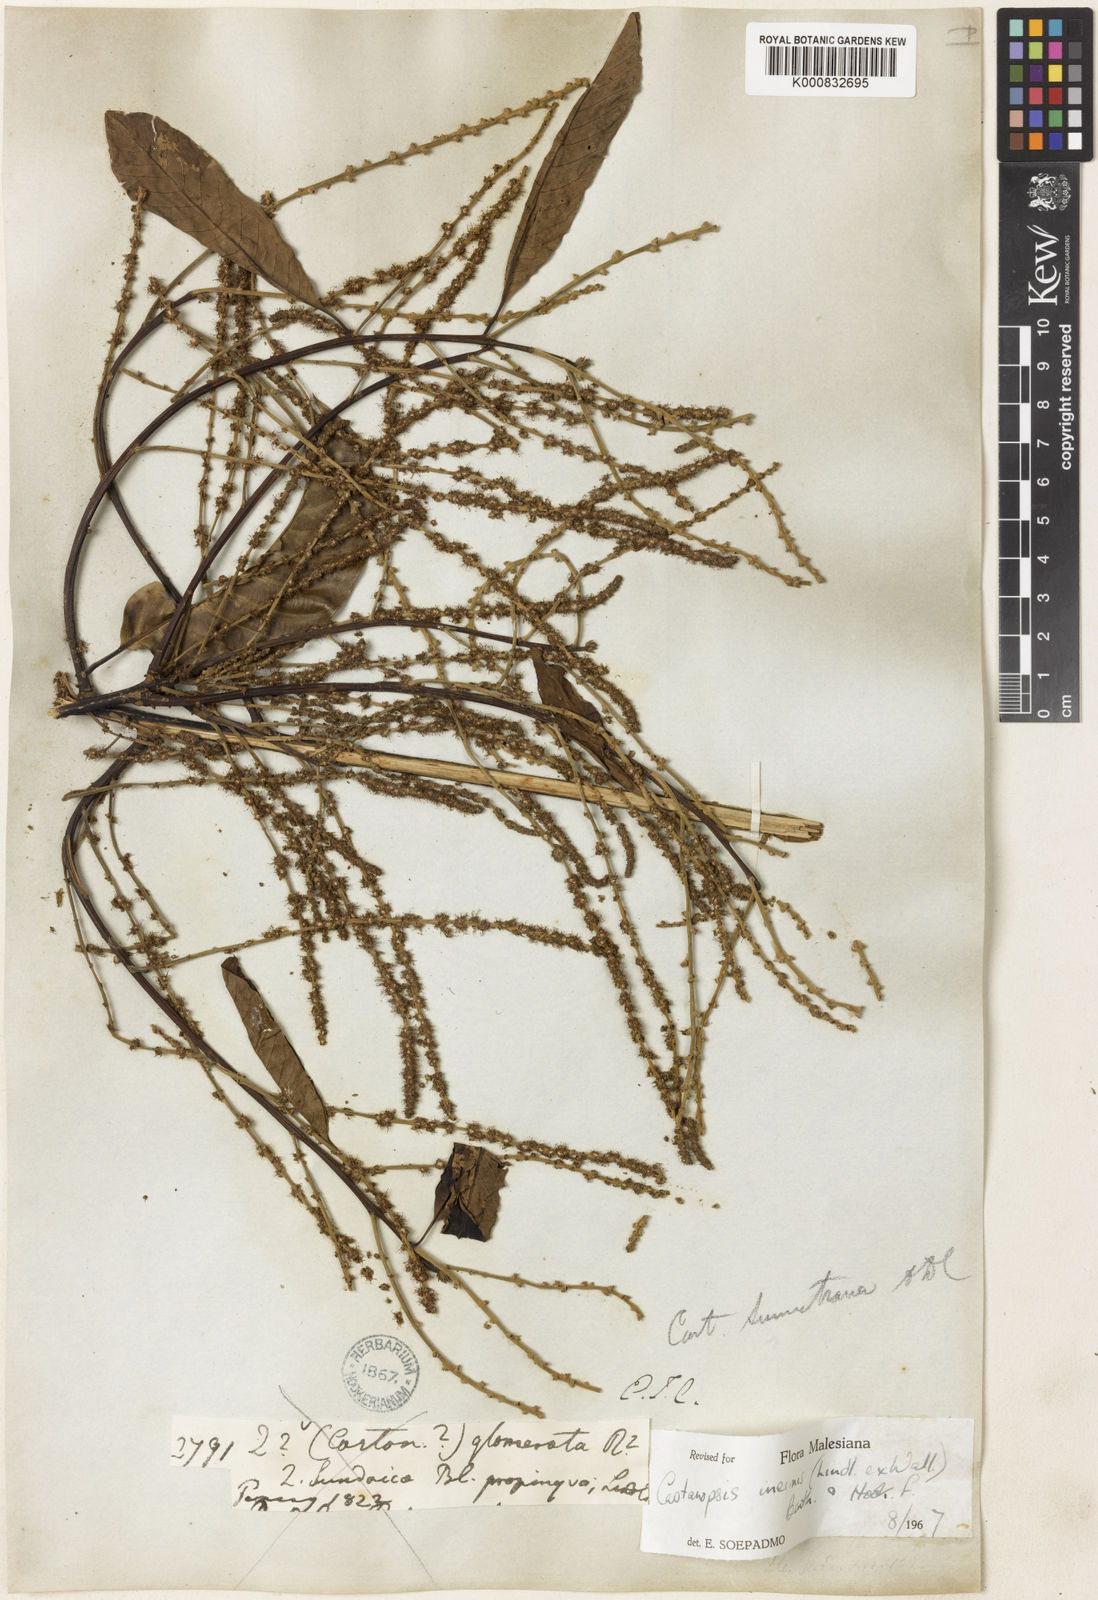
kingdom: Plantae
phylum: Tracheophyta
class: Magnoliopsida
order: Fagales
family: Fagaceae
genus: Castanopsis
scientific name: Castanopsis inermis
